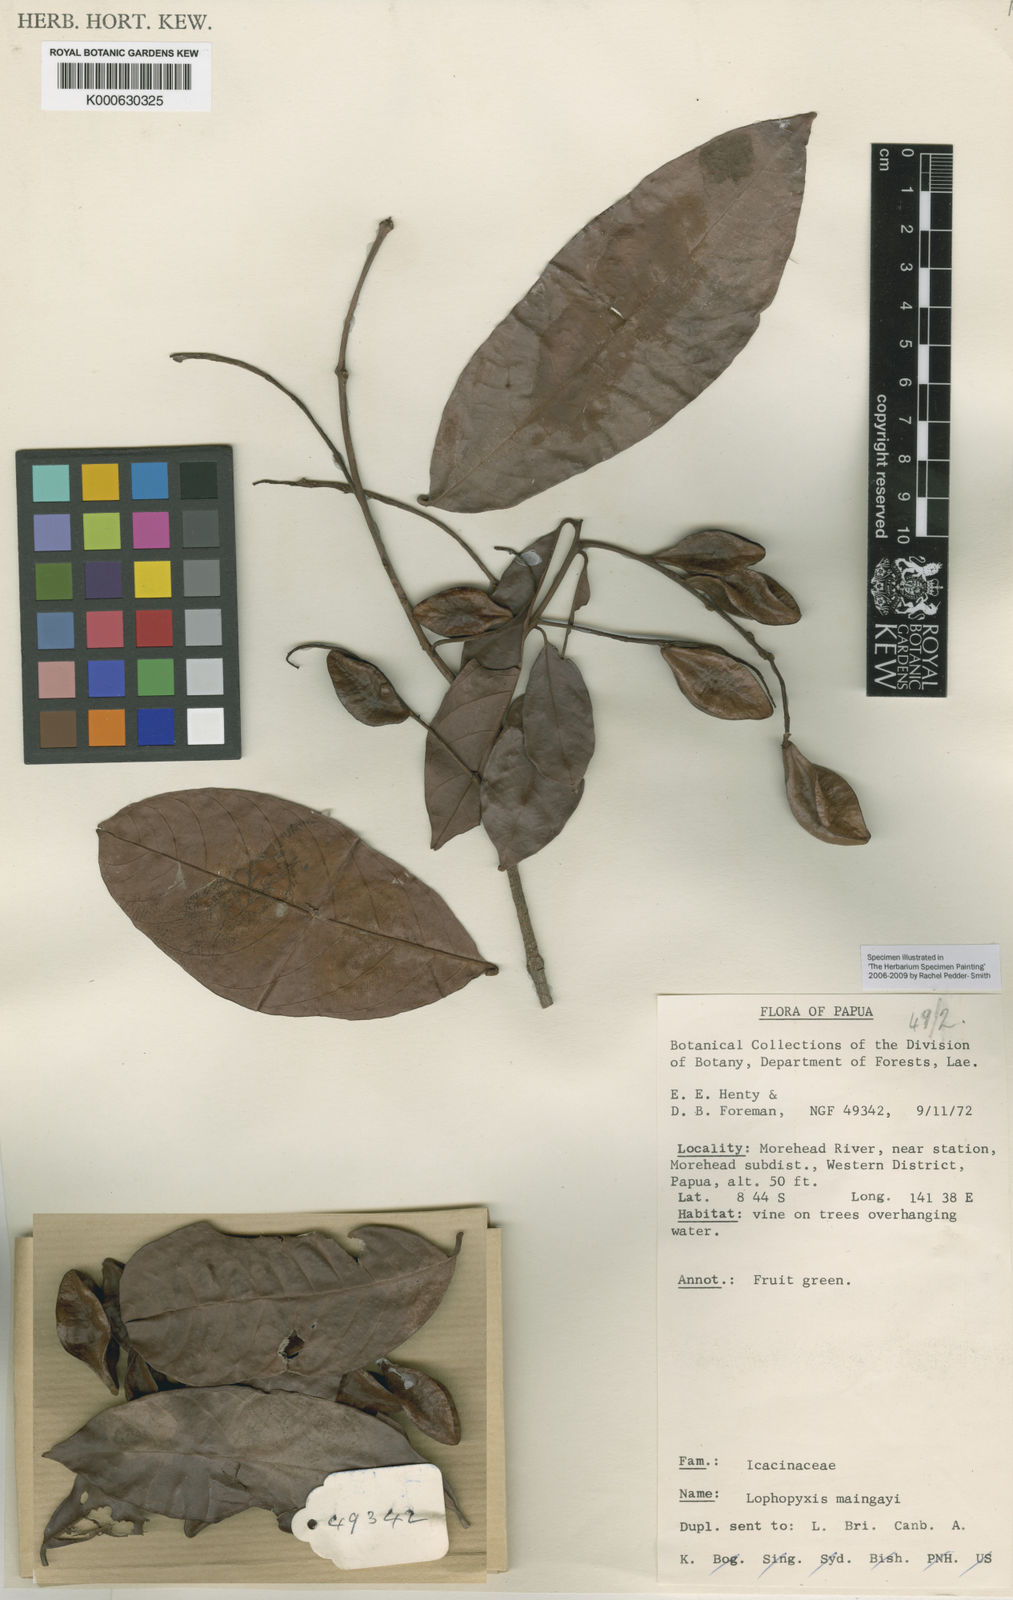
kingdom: Plantae
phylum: Tracheophyta
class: Magnoliopsida
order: Myrtales
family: Combretaceae
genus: Combretum
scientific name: Combretum tetralophum
